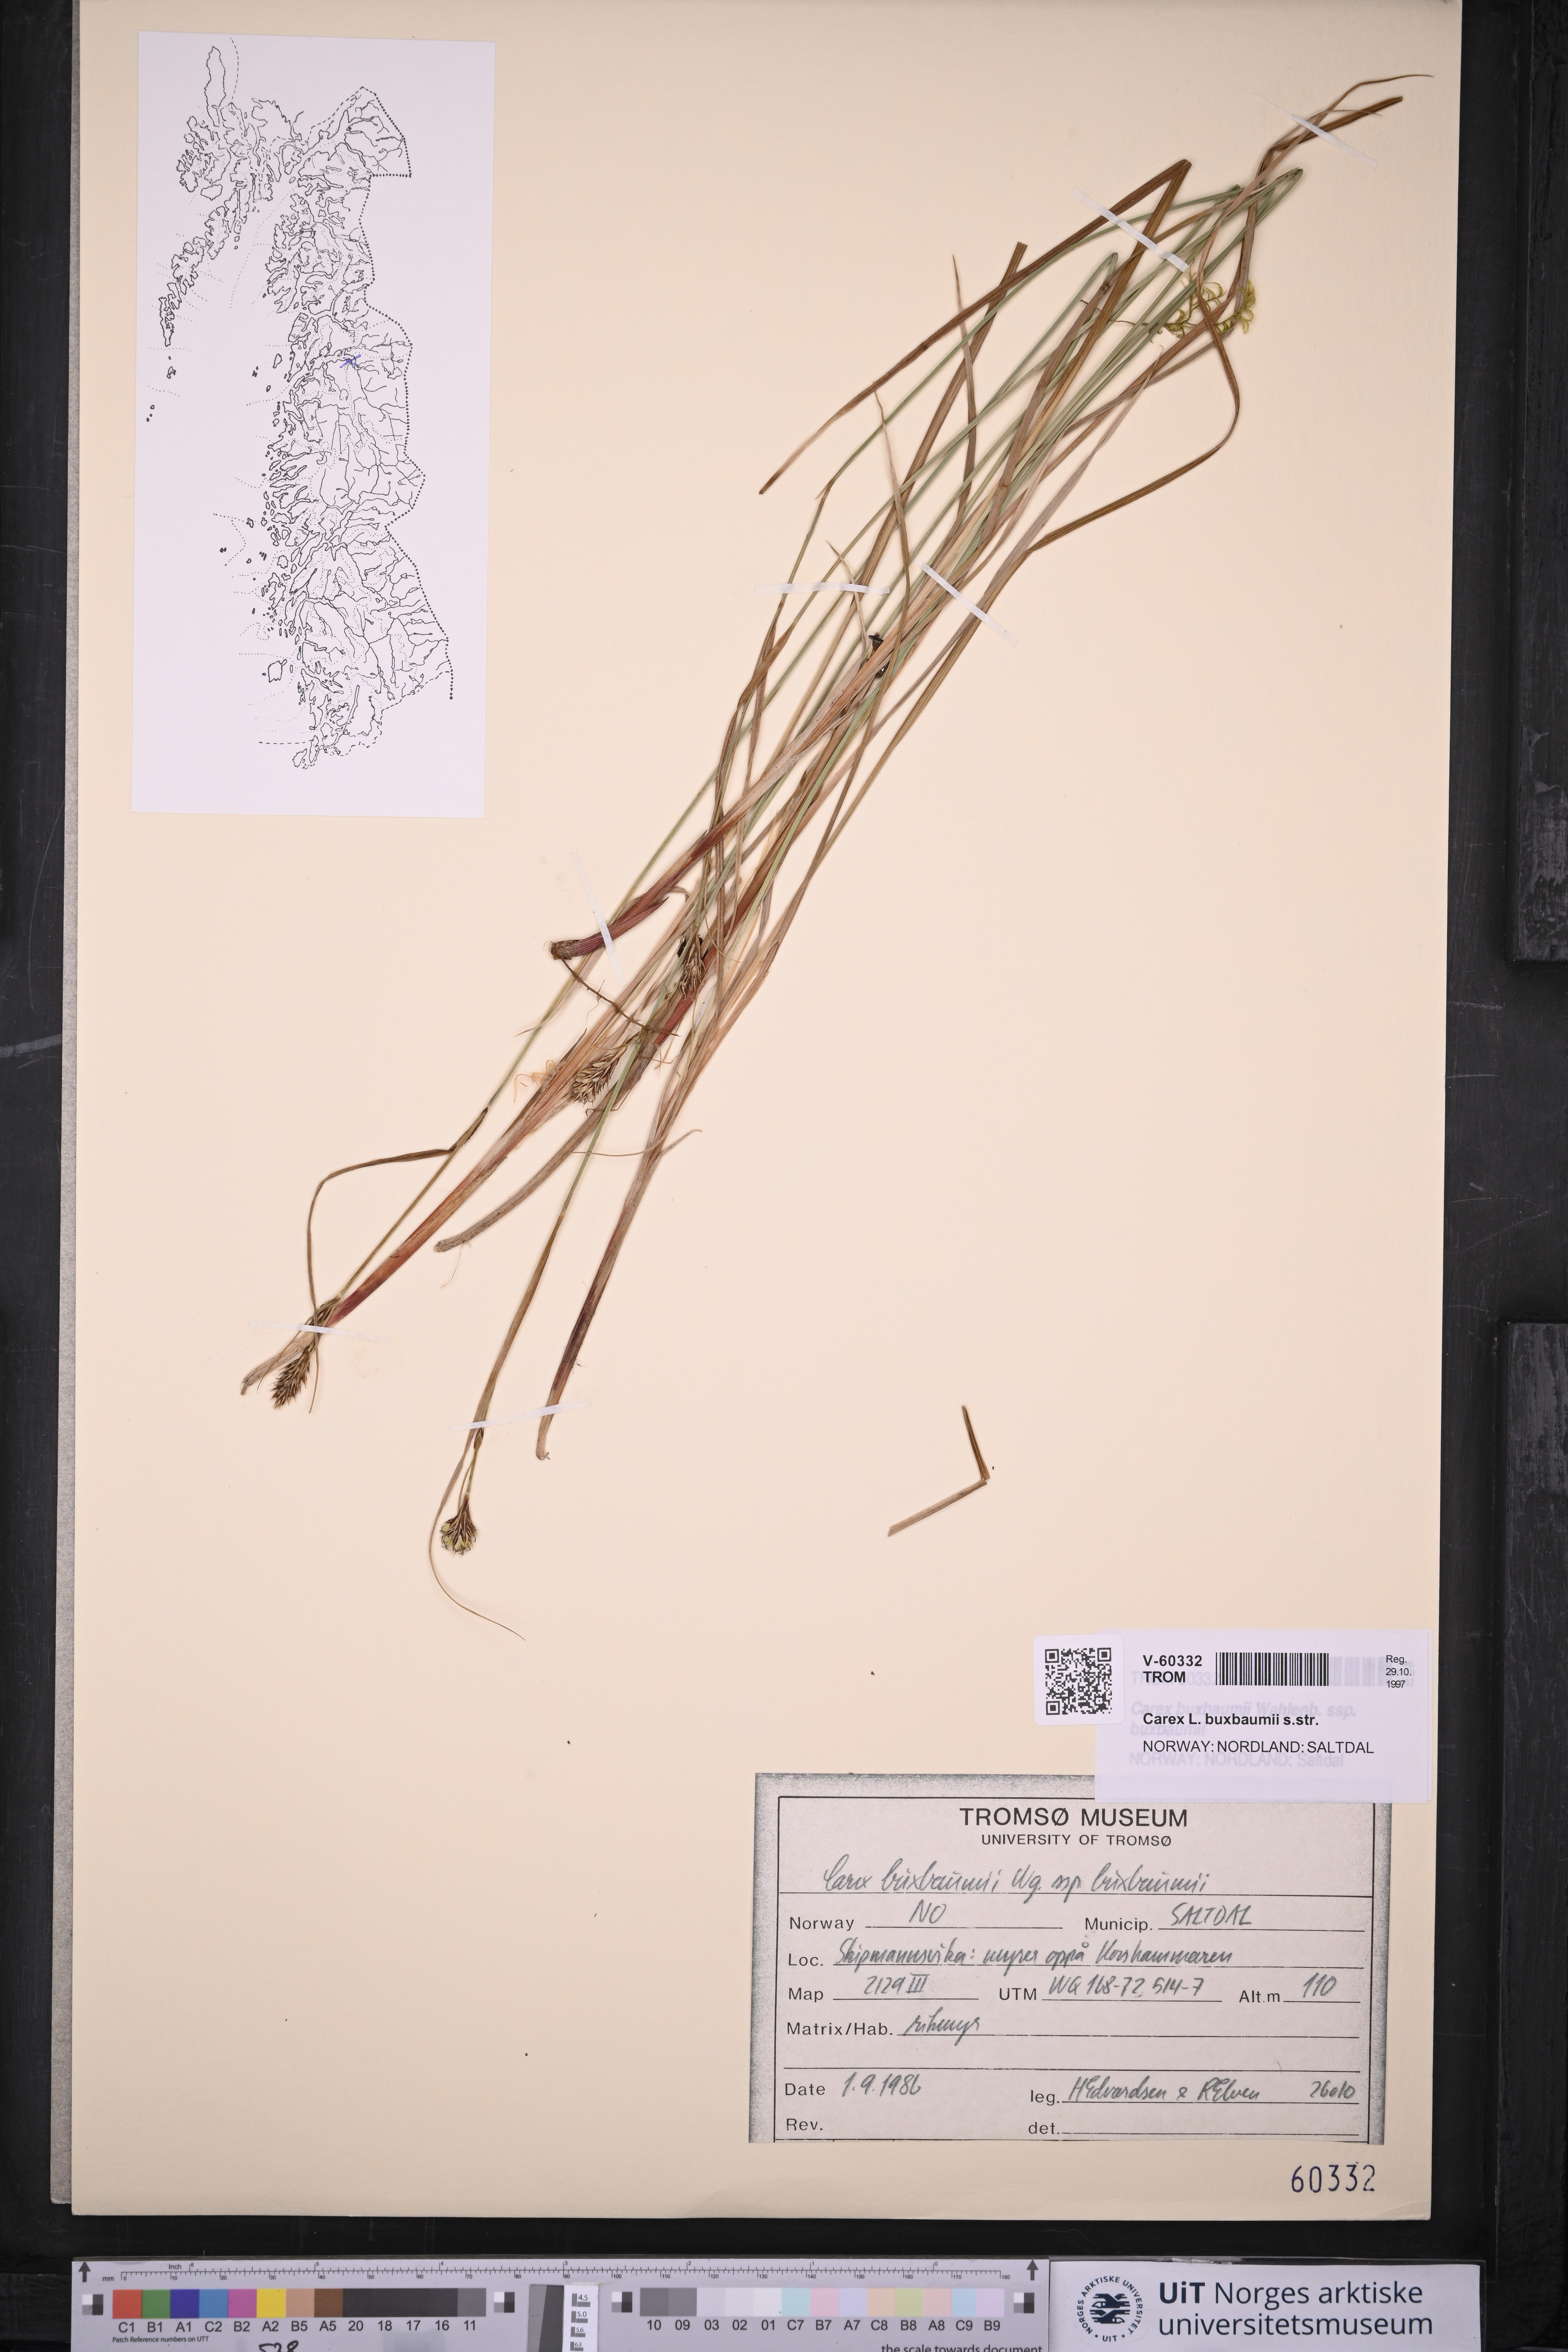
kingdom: Plantae
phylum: Tracheophyta
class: Liliopsida
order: Poales
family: Cyperaceae
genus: Carex
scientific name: Carex buxbaumii
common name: Club sedge
